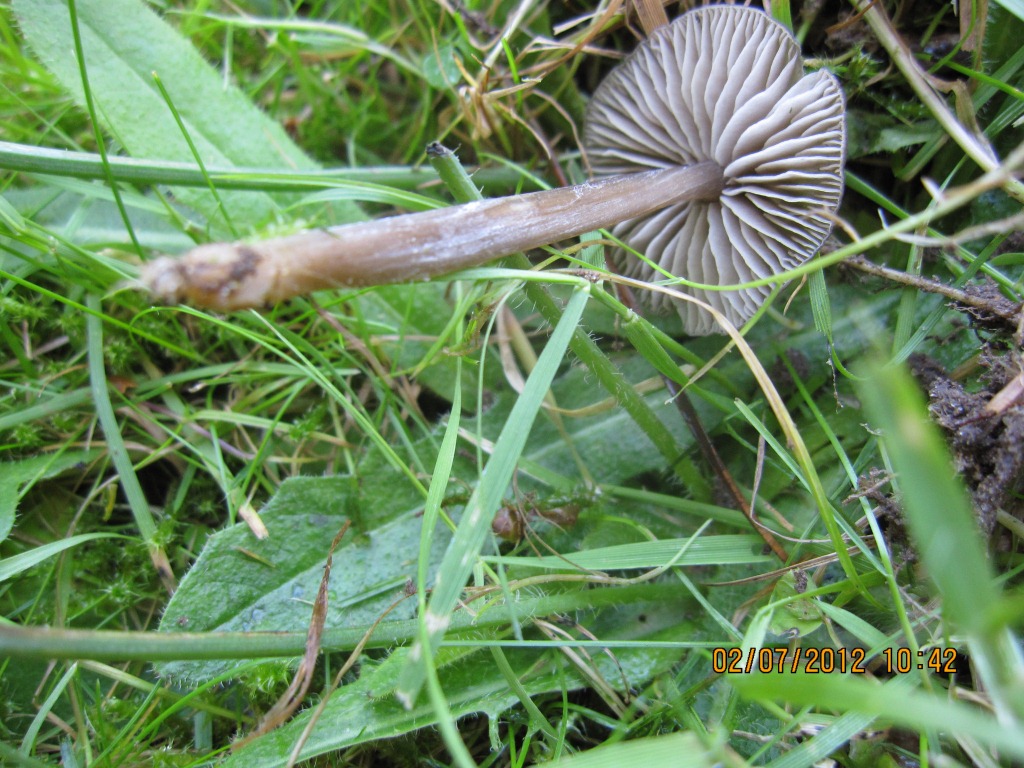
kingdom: Fungi
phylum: Basidiomycota
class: Agaricomycetes
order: Agaricales
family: Entolomataceae
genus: Entoloma
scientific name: Entoloma sericeum
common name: silkeglinsende rødblad
